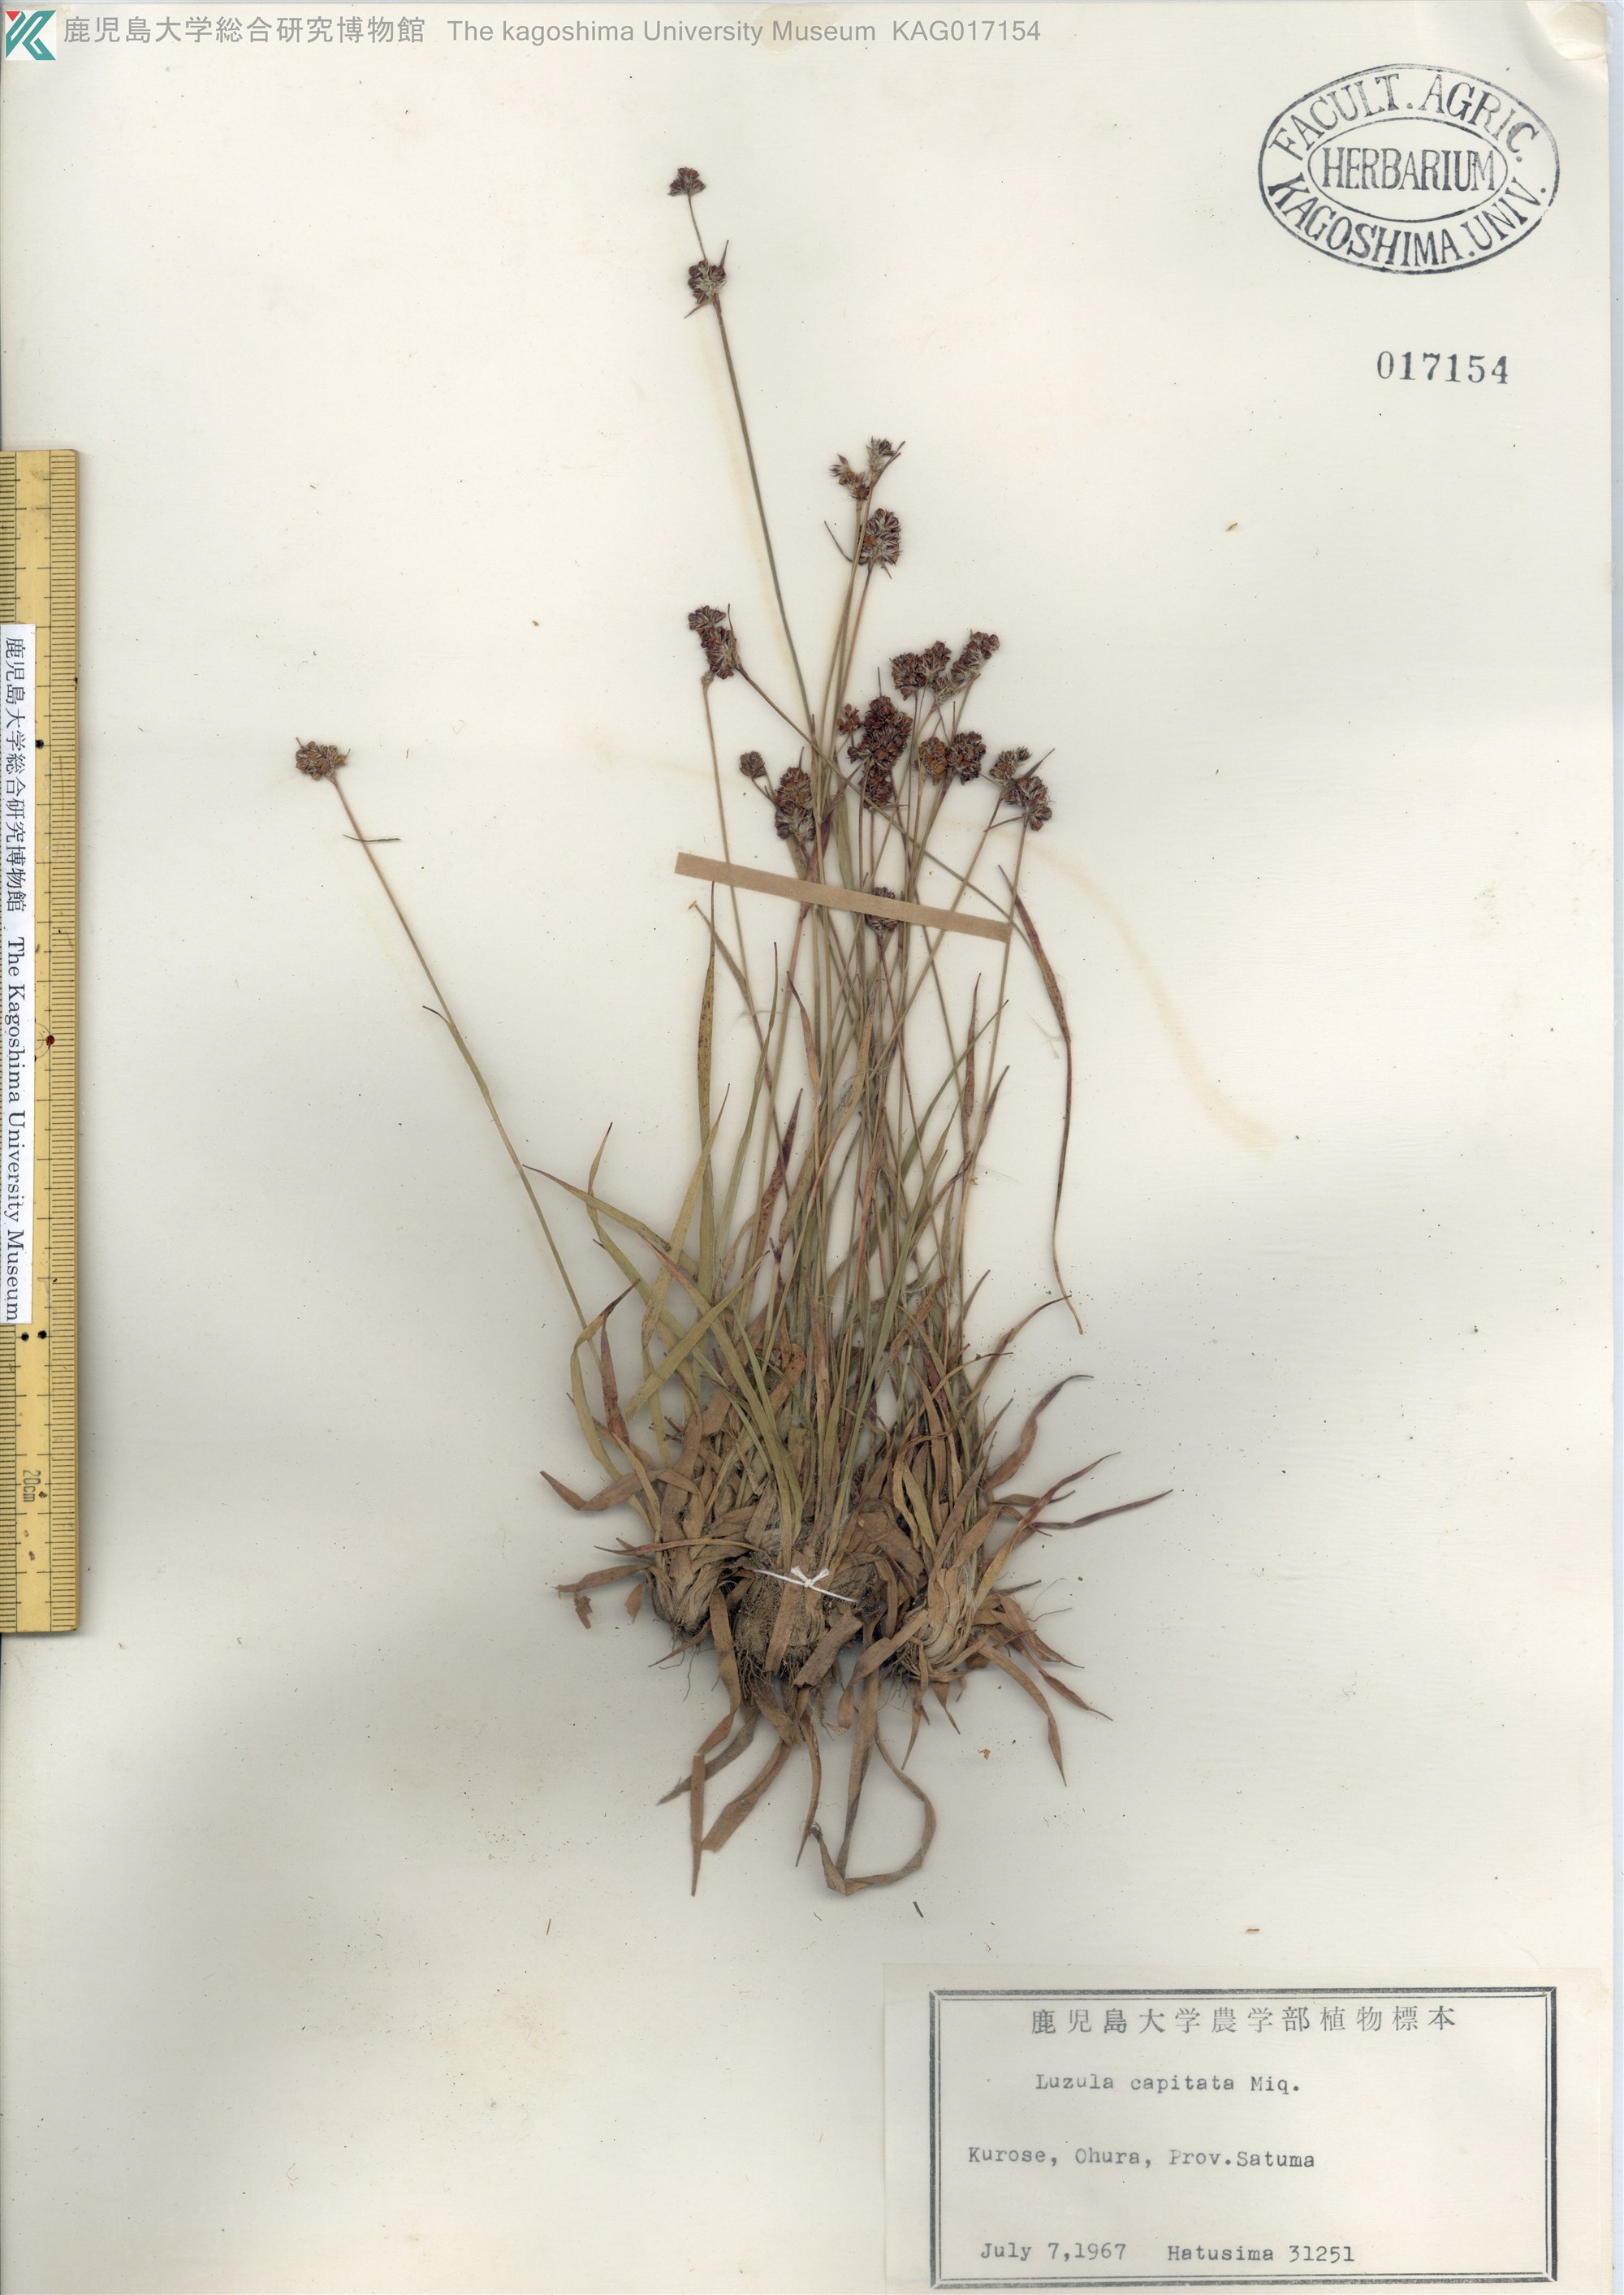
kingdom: Plantae
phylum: Tracheophyta
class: Liliopsida
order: Poales
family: Juncaceae
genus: Luzula
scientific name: Luzula capitata
